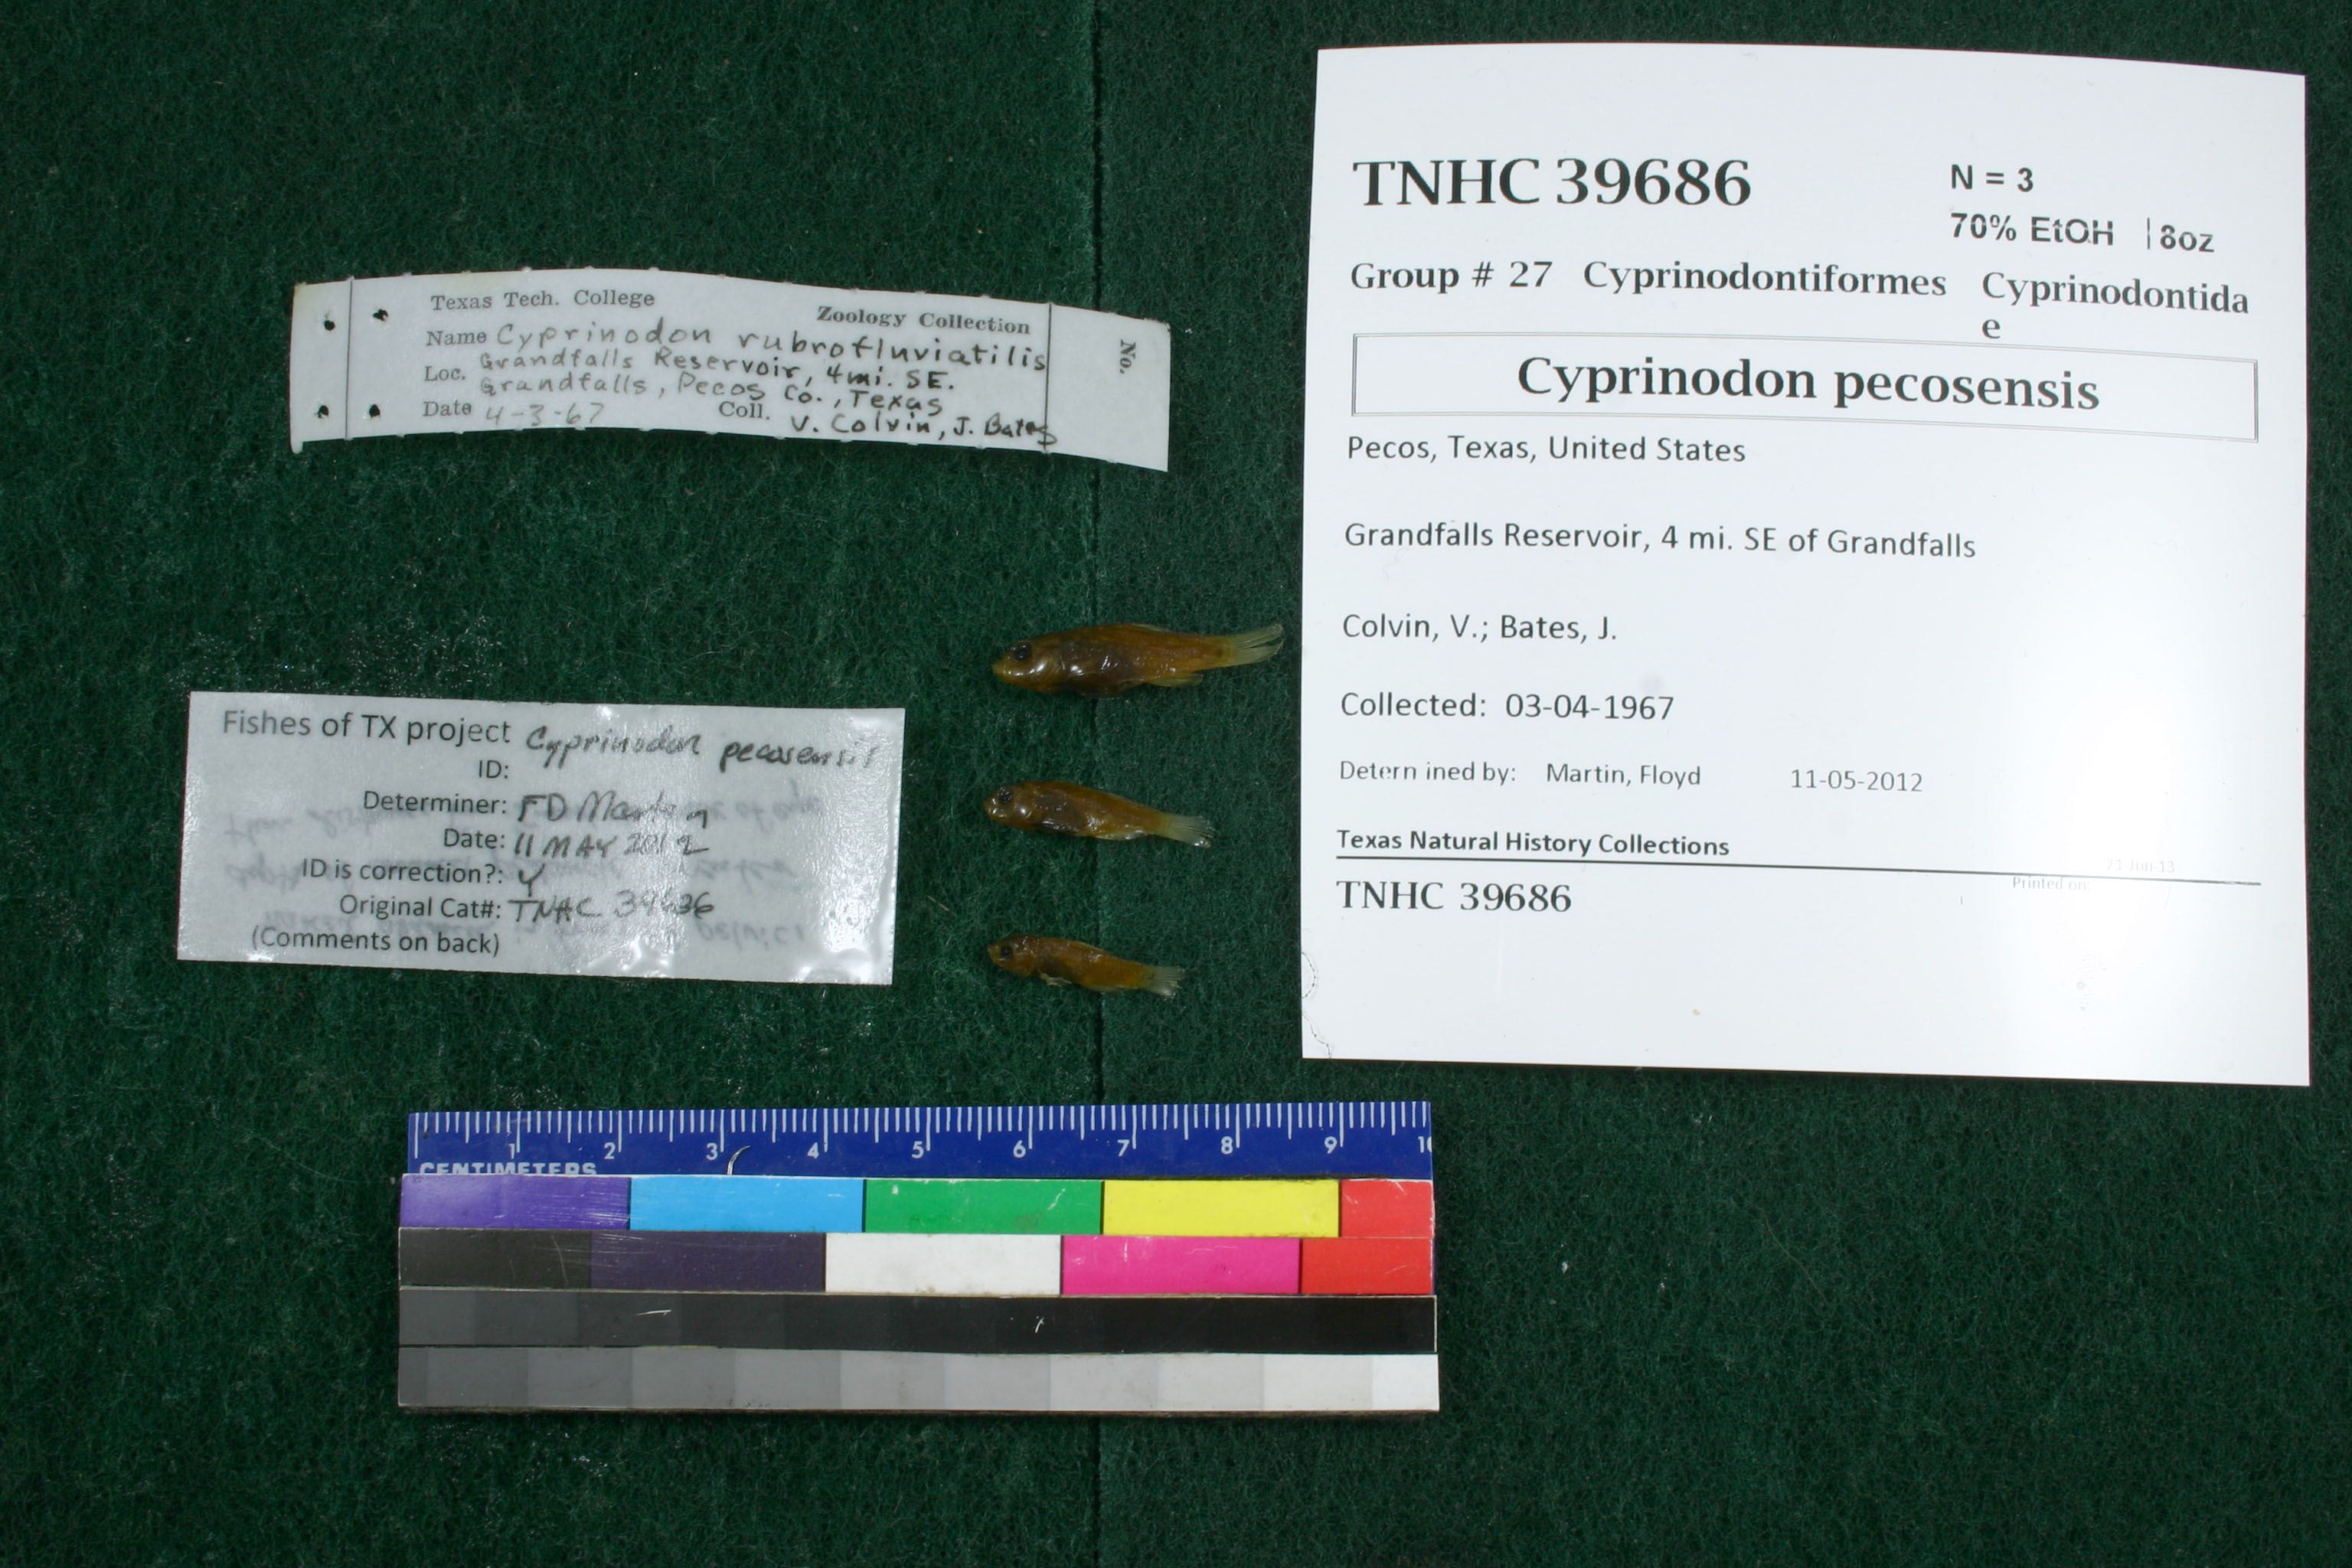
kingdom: Animalia
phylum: Chordata
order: Cyprinodontiformes
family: Cyprinodontidae
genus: Cyprinodon
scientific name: Cyprinodon pecosensis
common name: Pecos pupfish
